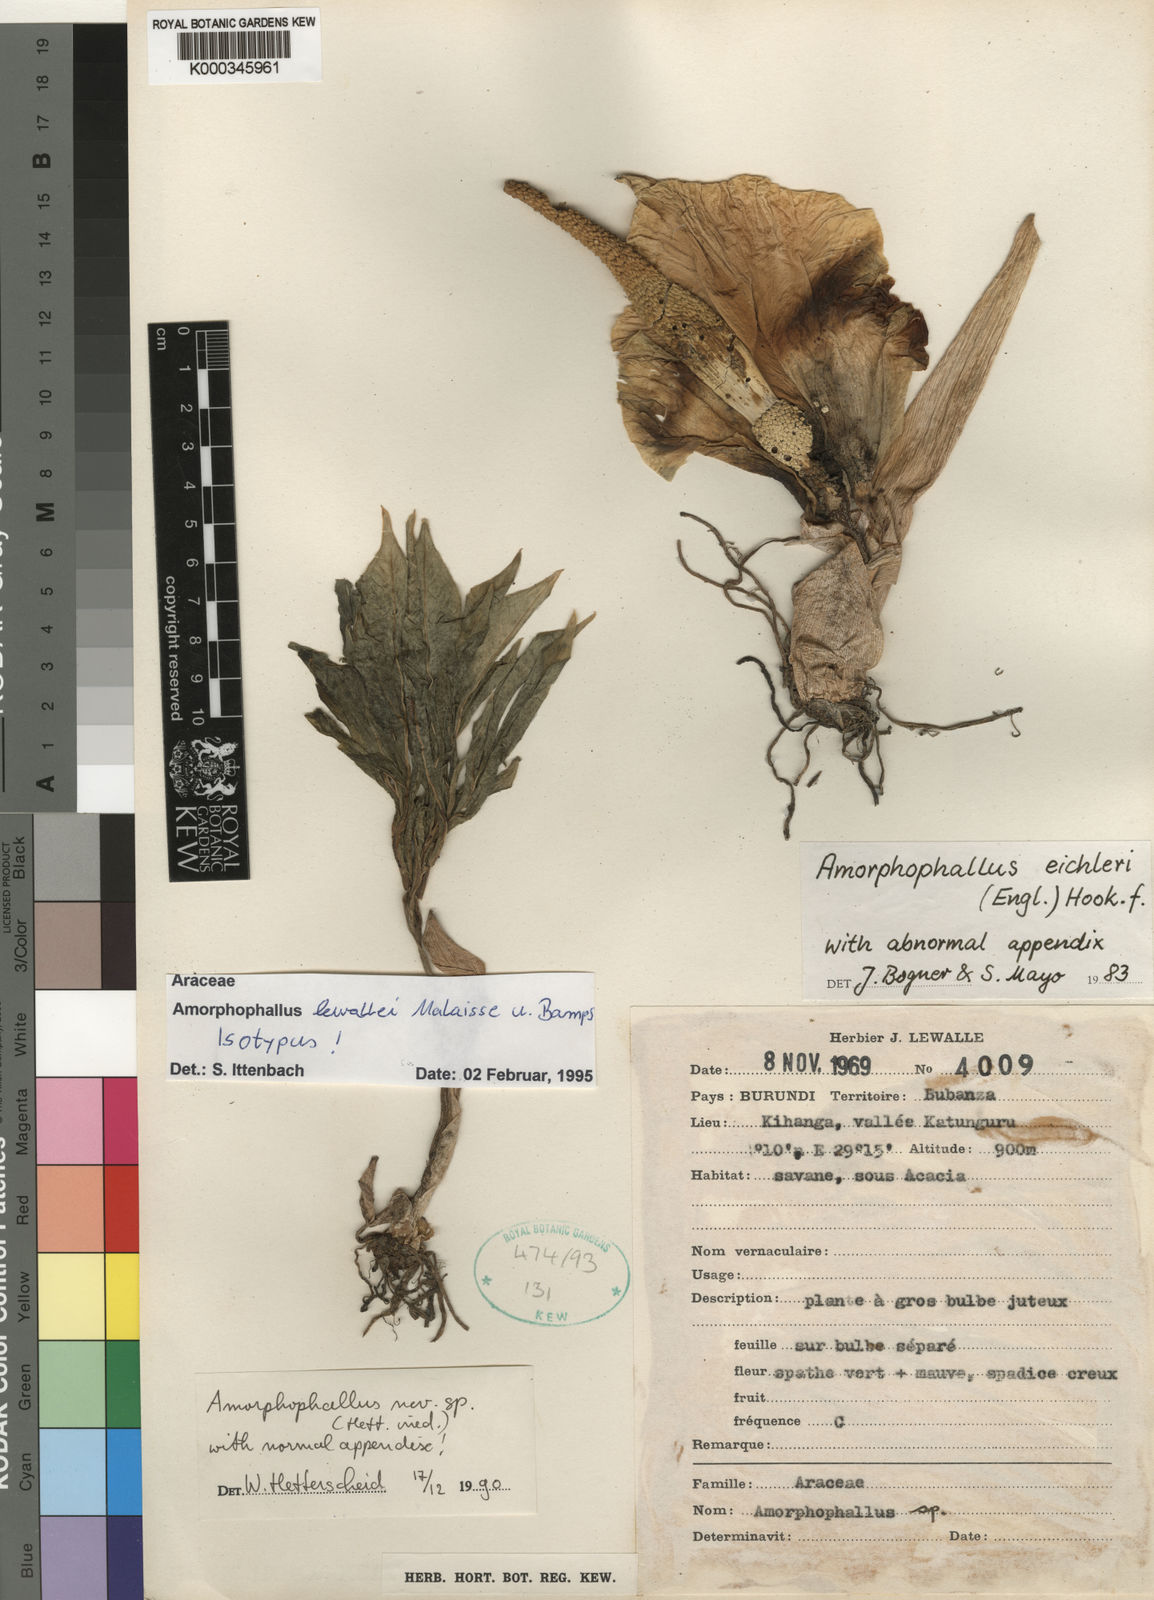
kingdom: Plantae
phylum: Tracheophyta
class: Liliopsida
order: Alismatales
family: Araceae
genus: Amorphophallus
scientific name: Amorphophallus lewallei
